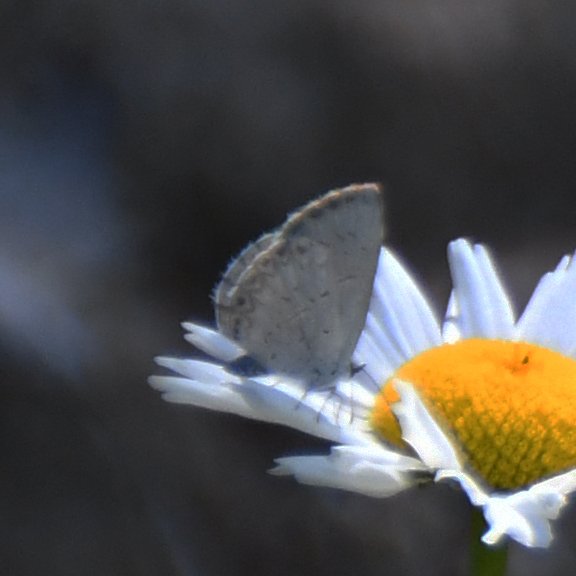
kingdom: Animalia
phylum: Arthropoda
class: Insecta
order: Lepidoptera
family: Lycaenidae
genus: Celastrina
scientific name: Celastrina lucia
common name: Northern Spring Azure
